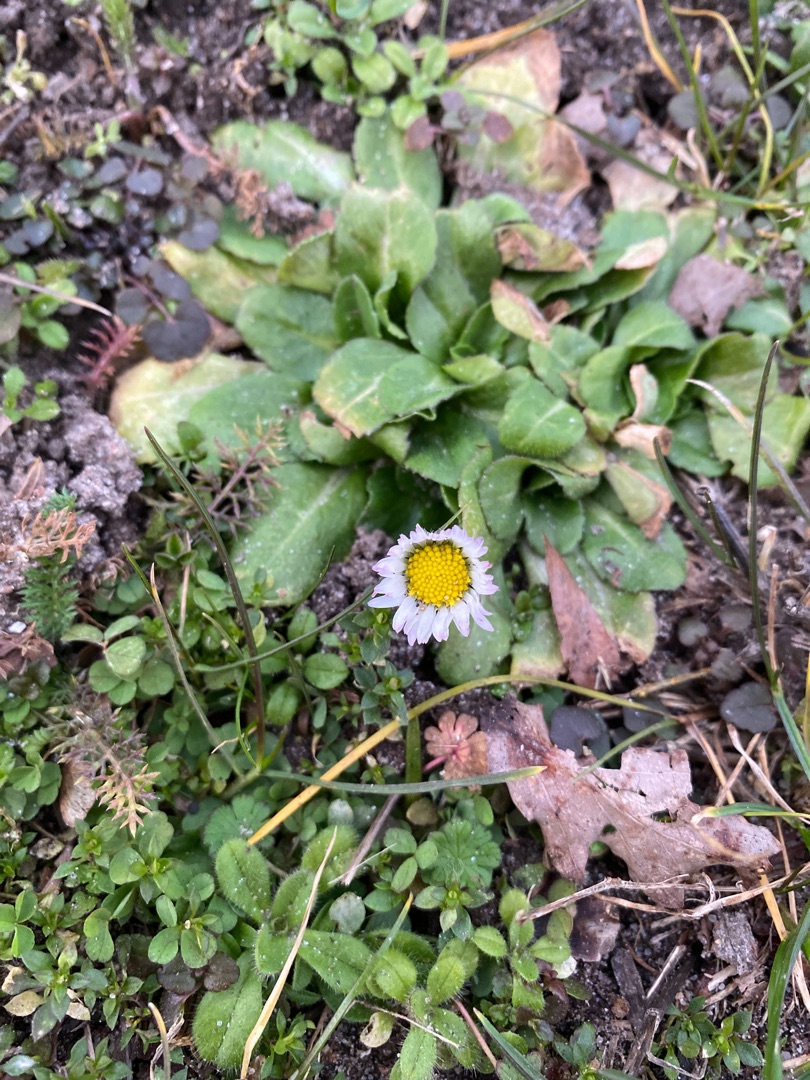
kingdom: Plantae
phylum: Tracheophyta
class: Magnoliopsida
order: Asterales
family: Asteraceae
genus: Bellis
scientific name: Bellis perennis
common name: Tusindfryd
